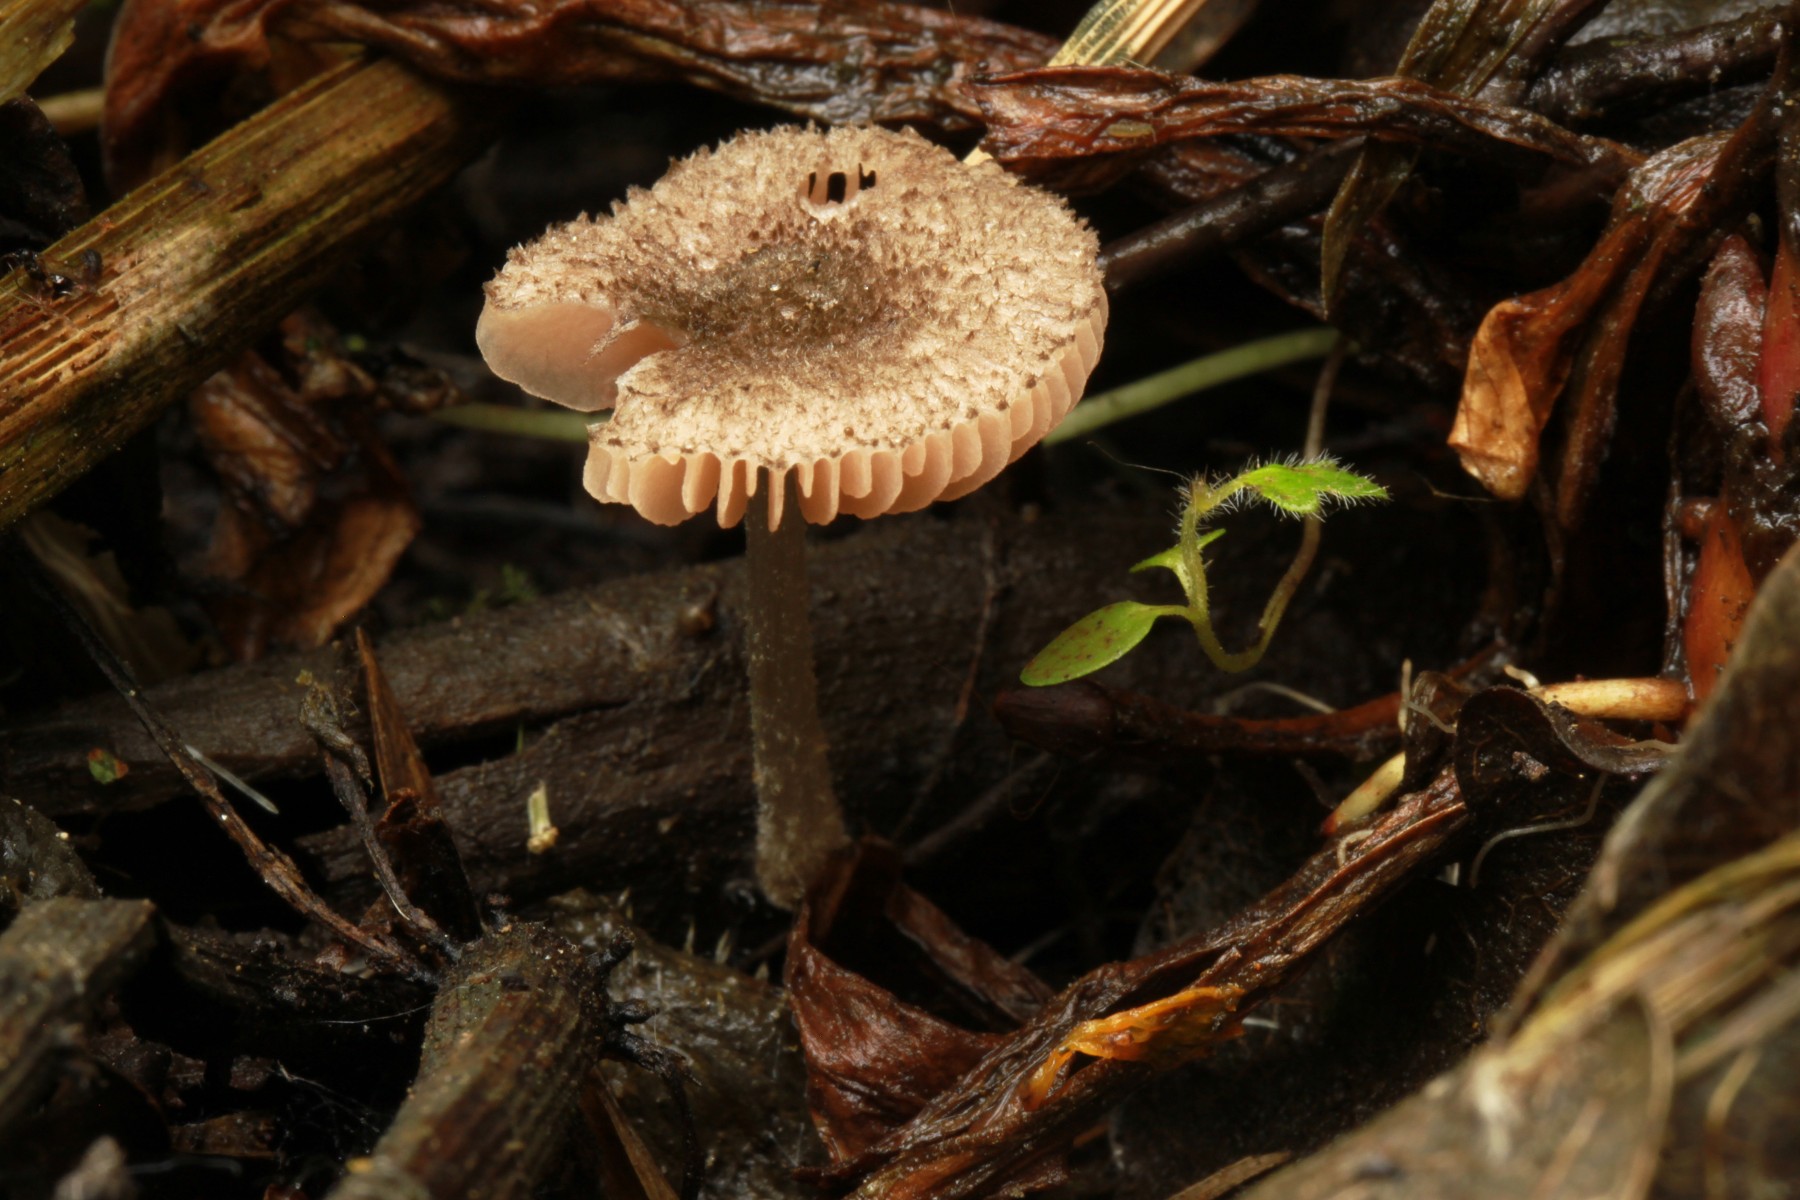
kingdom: Fungi
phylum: Basidiomycota
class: Agaricomycetes
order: Agaricales
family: Pluteaceae
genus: Pluteus
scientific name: Pluteus
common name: stivhåret skærmhat
